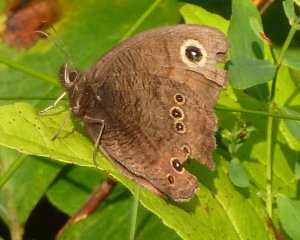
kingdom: Animalia
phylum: Arthropoda
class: Insecta
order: Lepidoptera
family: Nymphalidae
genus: Cercyonis
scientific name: Cercyonis pegala
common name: Common Wood-Nymph
